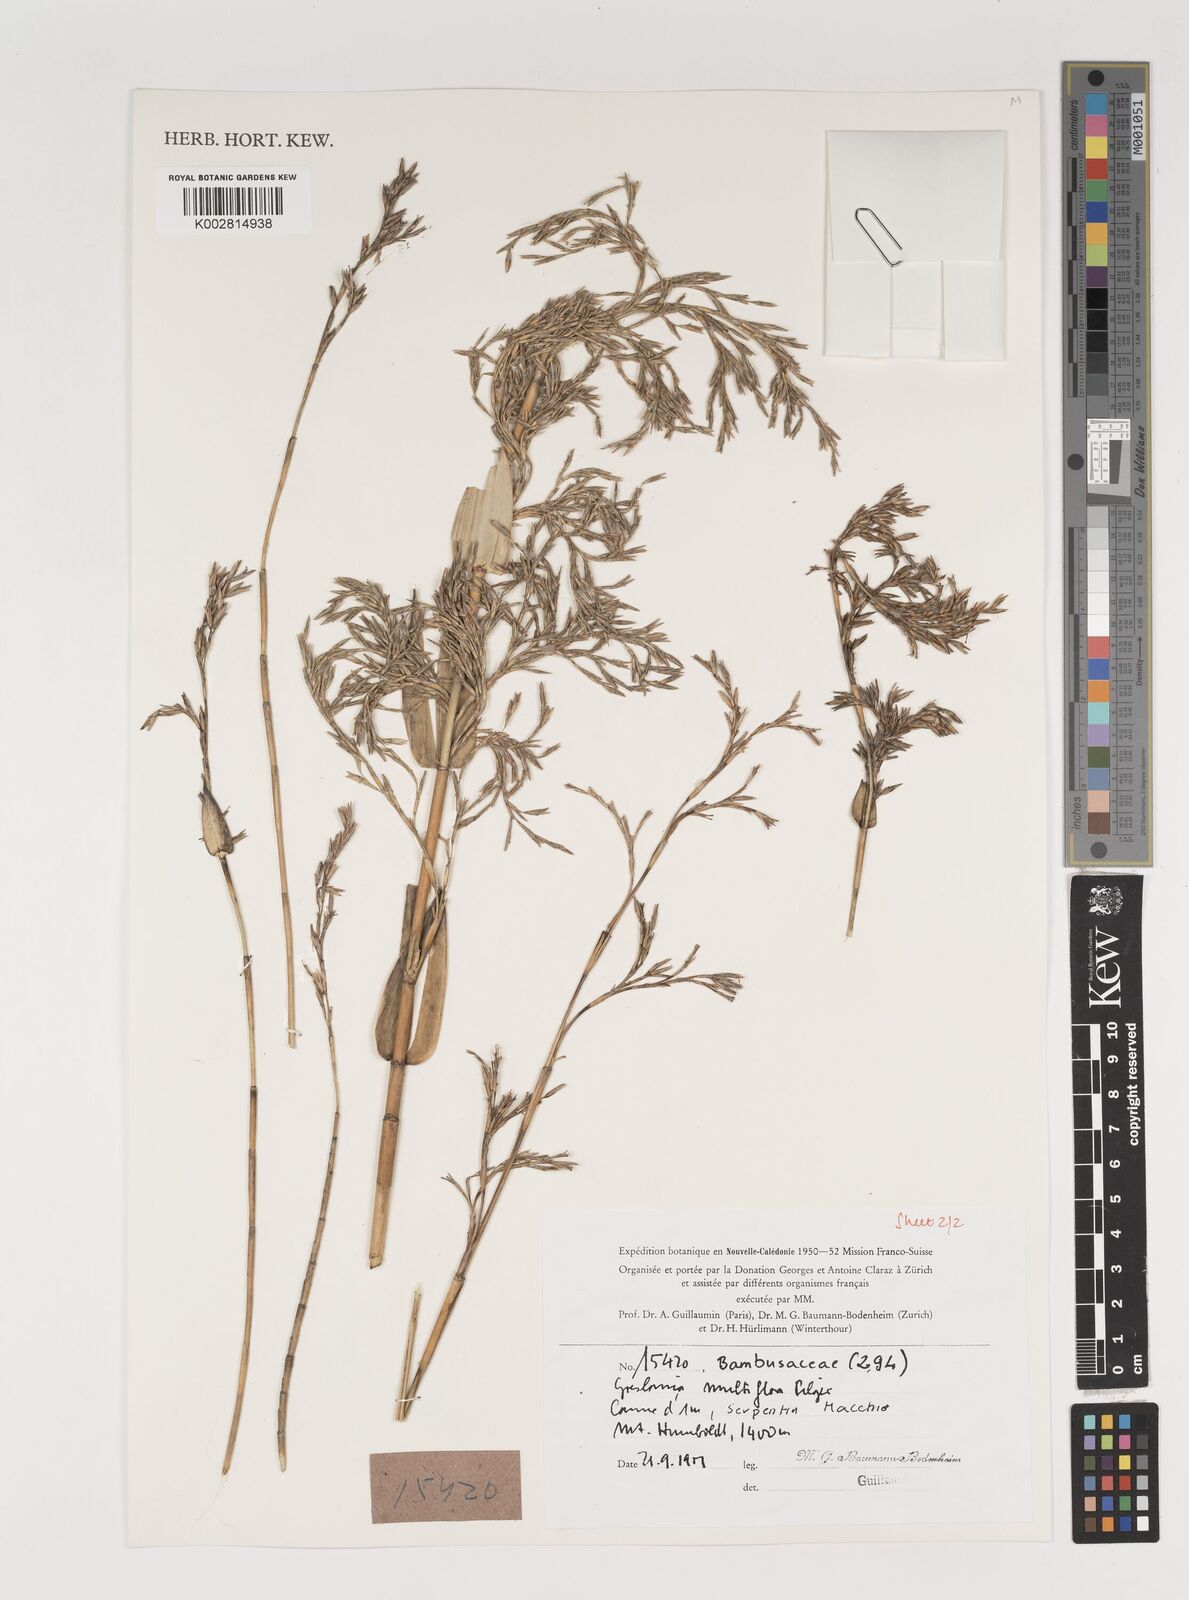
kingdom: Plantae
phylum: Tracheophyta
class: Liliopsida
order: Poales
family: Poaceae
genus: Greslania
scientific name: Greslania circinata
